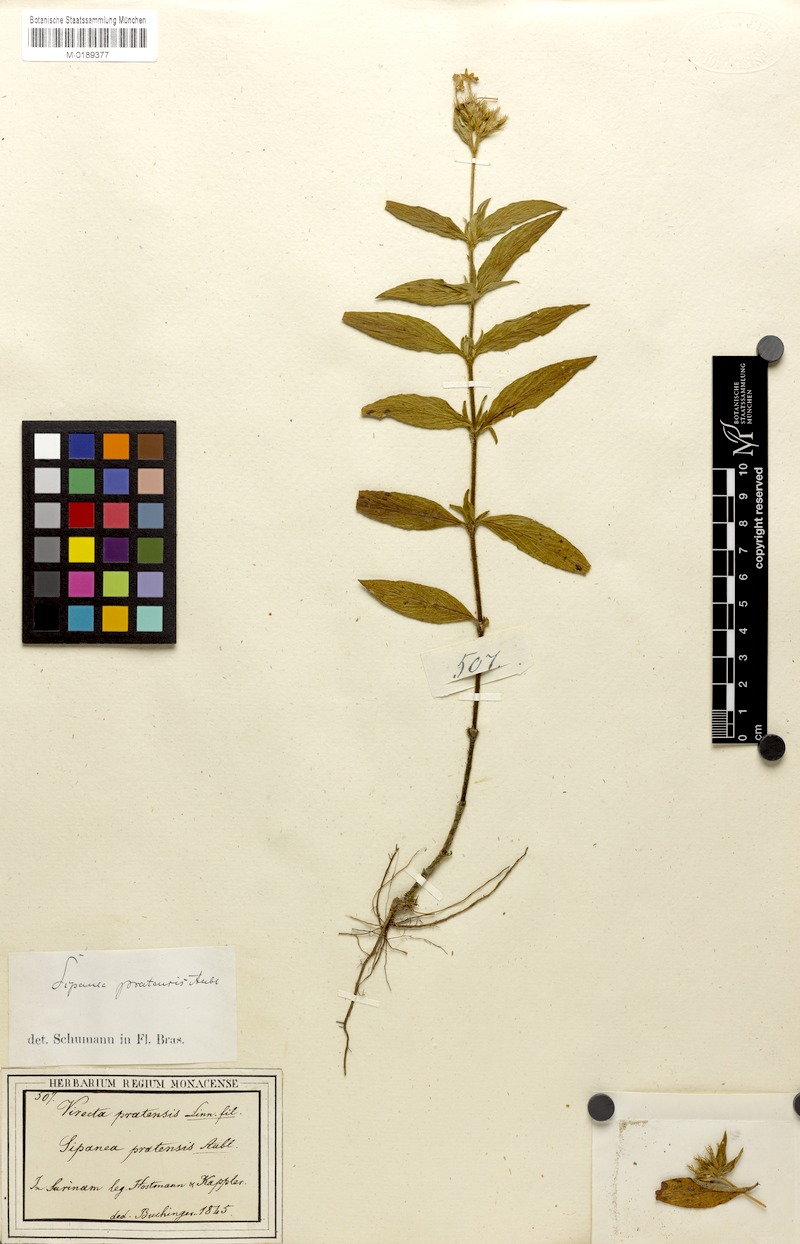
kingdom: Plantae
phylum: Tracheophyta
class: Magnoliopsida
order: Gentianales
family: Rubiaceae
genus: Sipanea
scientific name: Sipanea pratensis
